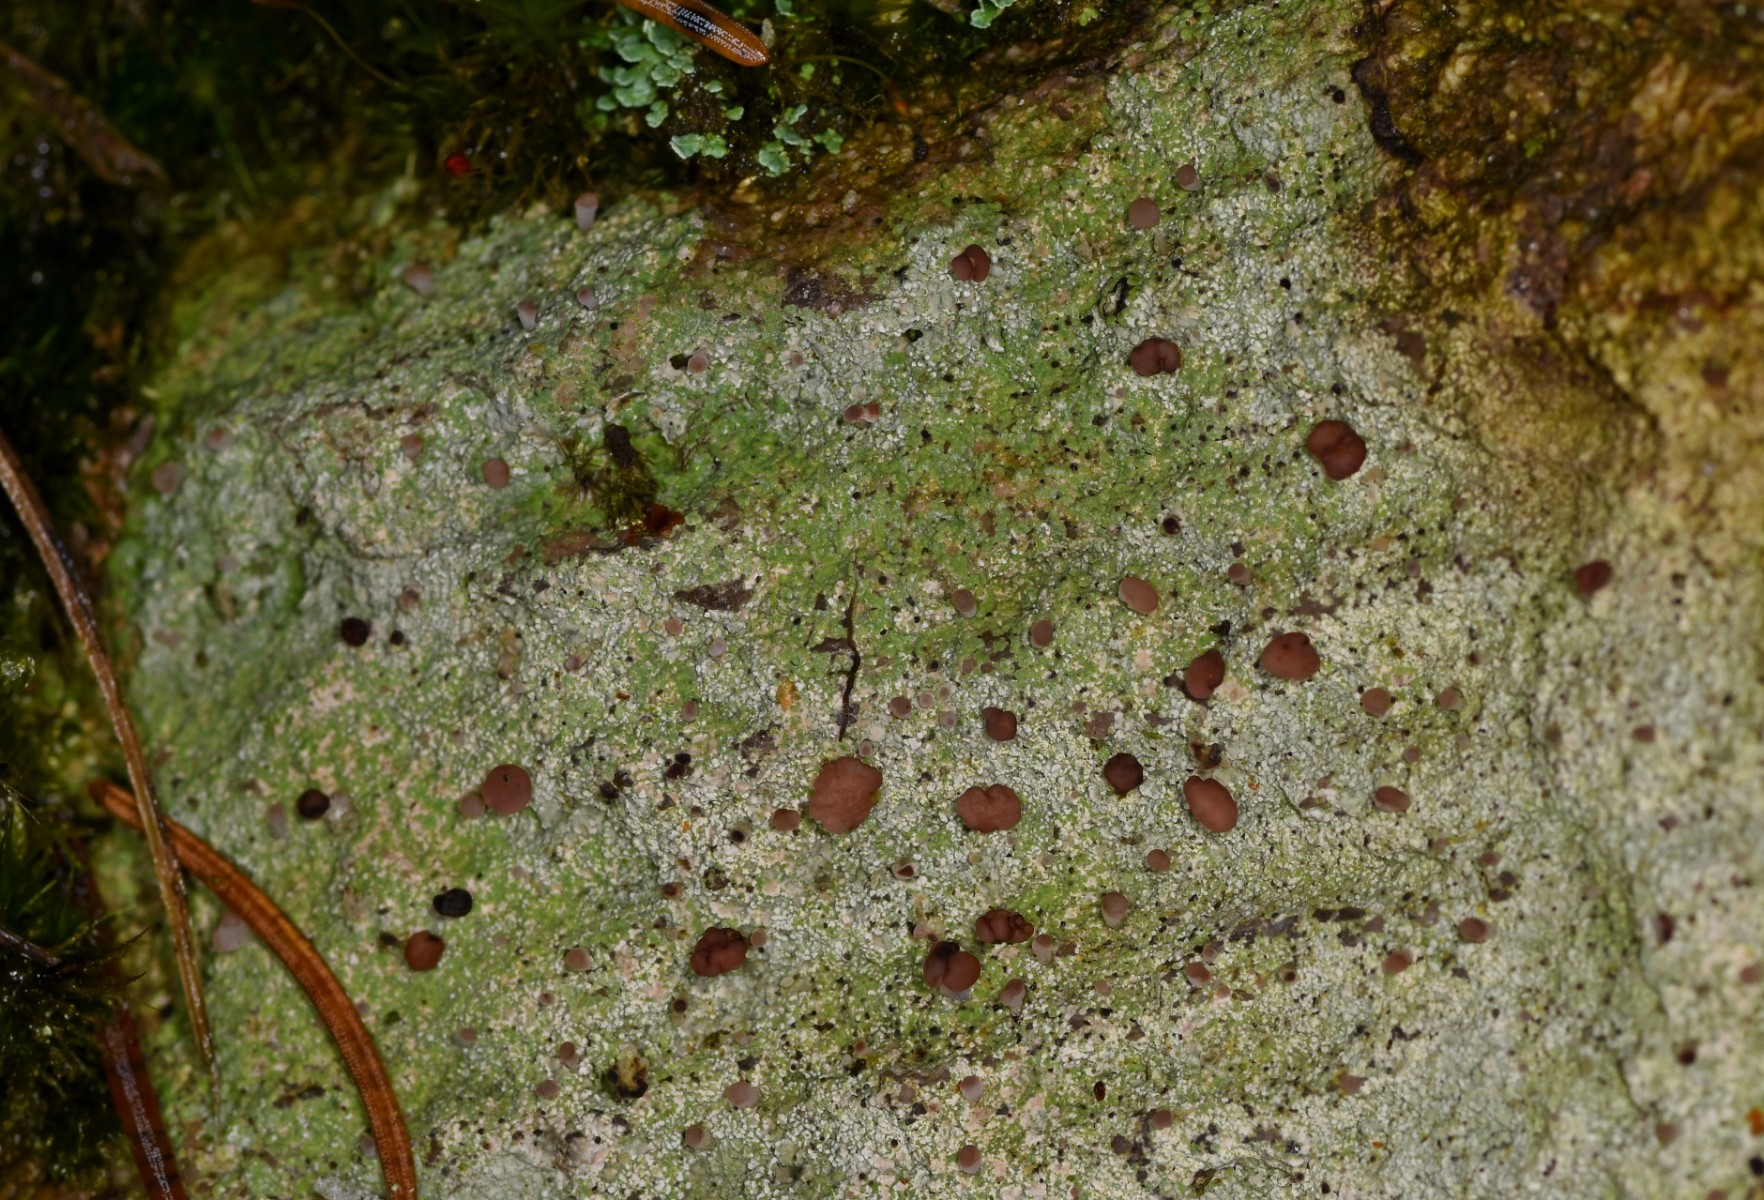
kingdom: Fungi
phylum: Ascomycota
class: Lecanoromycetes
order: Baeomycetales
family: Baeomycetaceae
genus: Baeomyces
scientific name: Baeomyces rufus
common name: rødbrun svampelav
